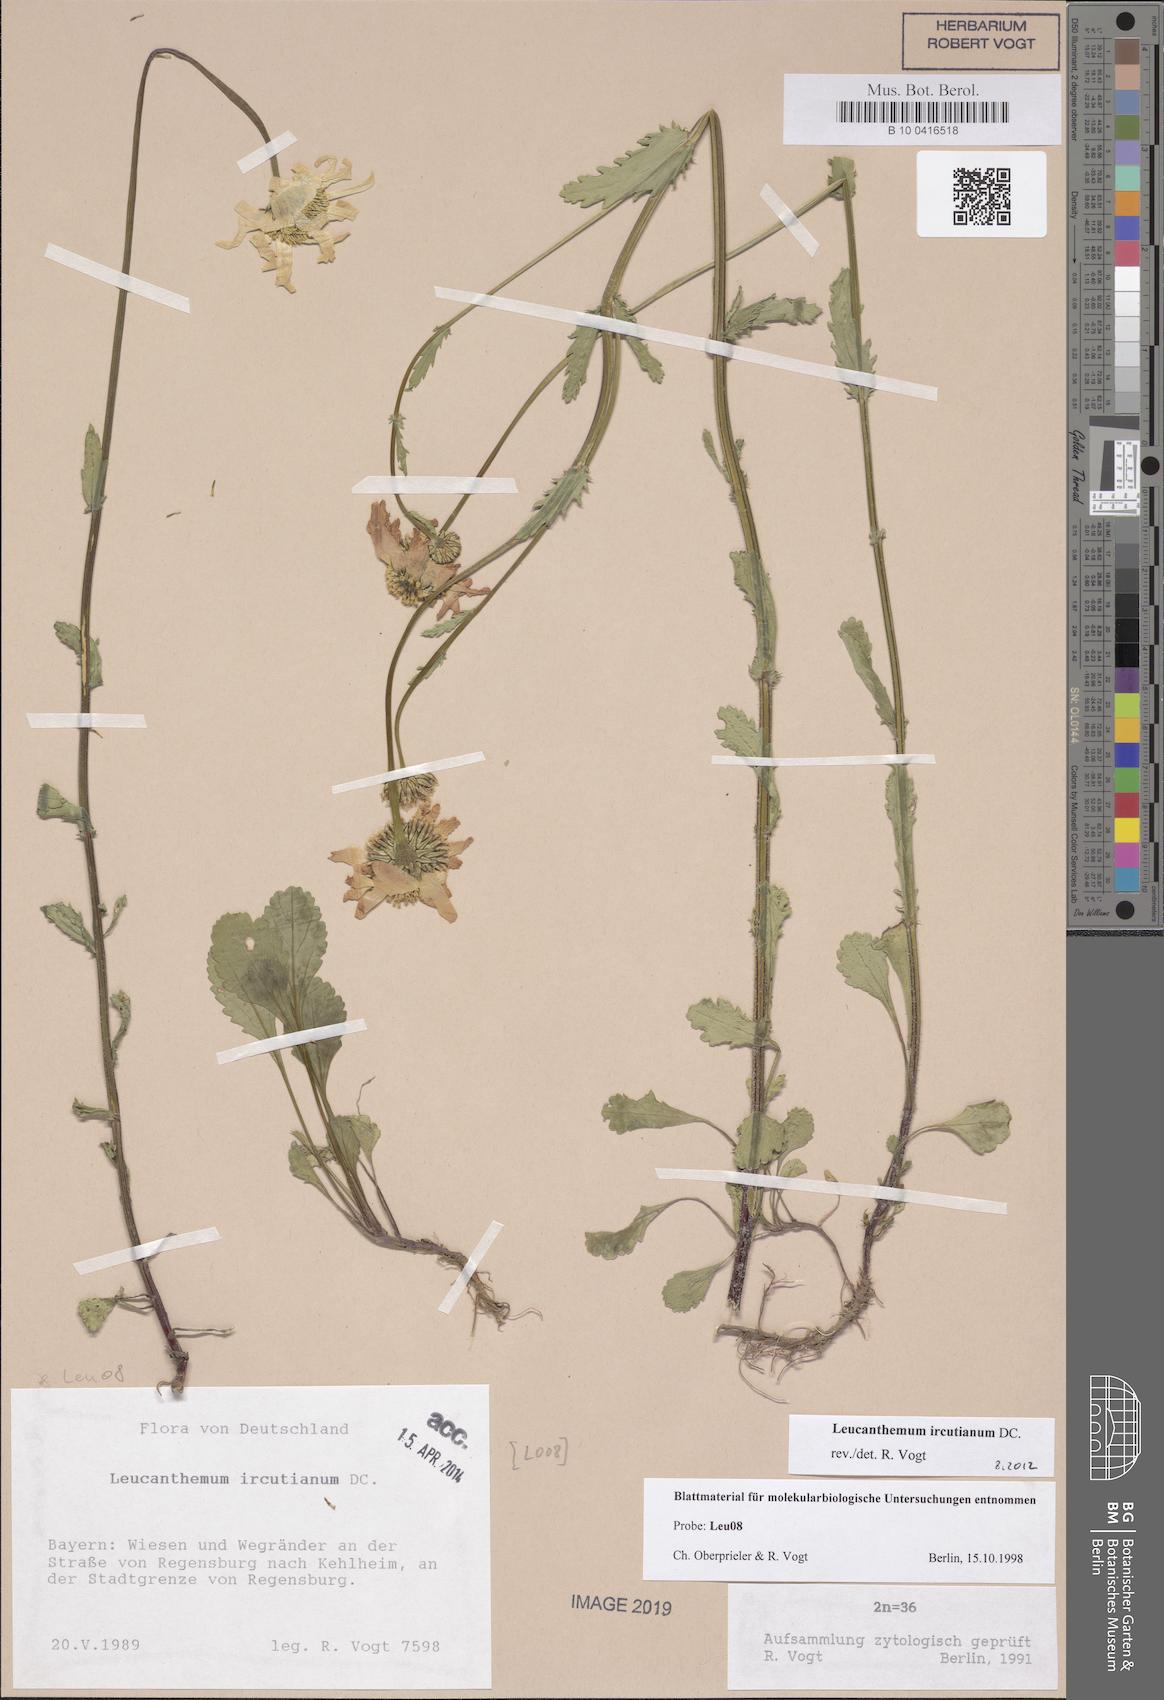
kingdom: Plantae
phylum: Tracheophyta
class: Magnoliopsida
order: Asterales
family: Asteraceae
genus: Leucanthemum
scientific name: Leucanthemum ircutianum
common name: Daisy
